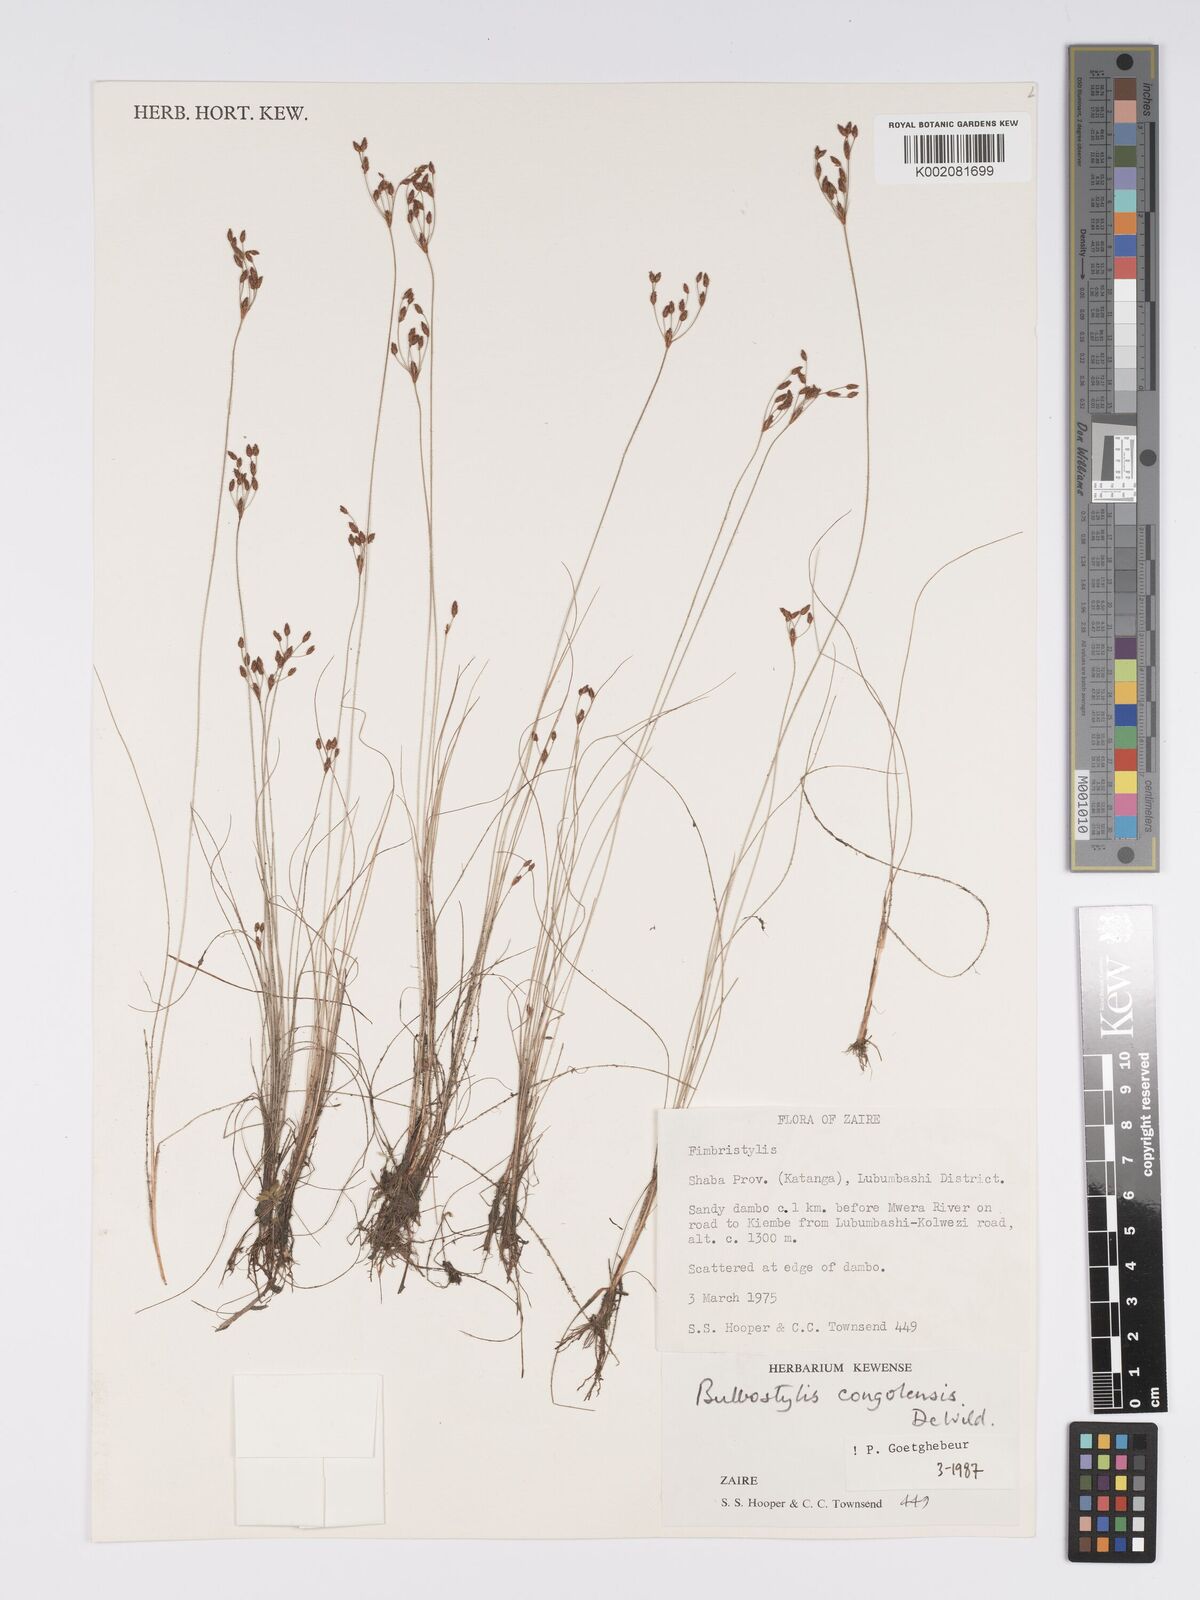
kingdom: Plantae
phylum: Tracheophyta
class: Liliopsida
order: Poales
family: Cyperaceae
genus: Bulbostylis
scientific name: Bulbostylis congolensis
